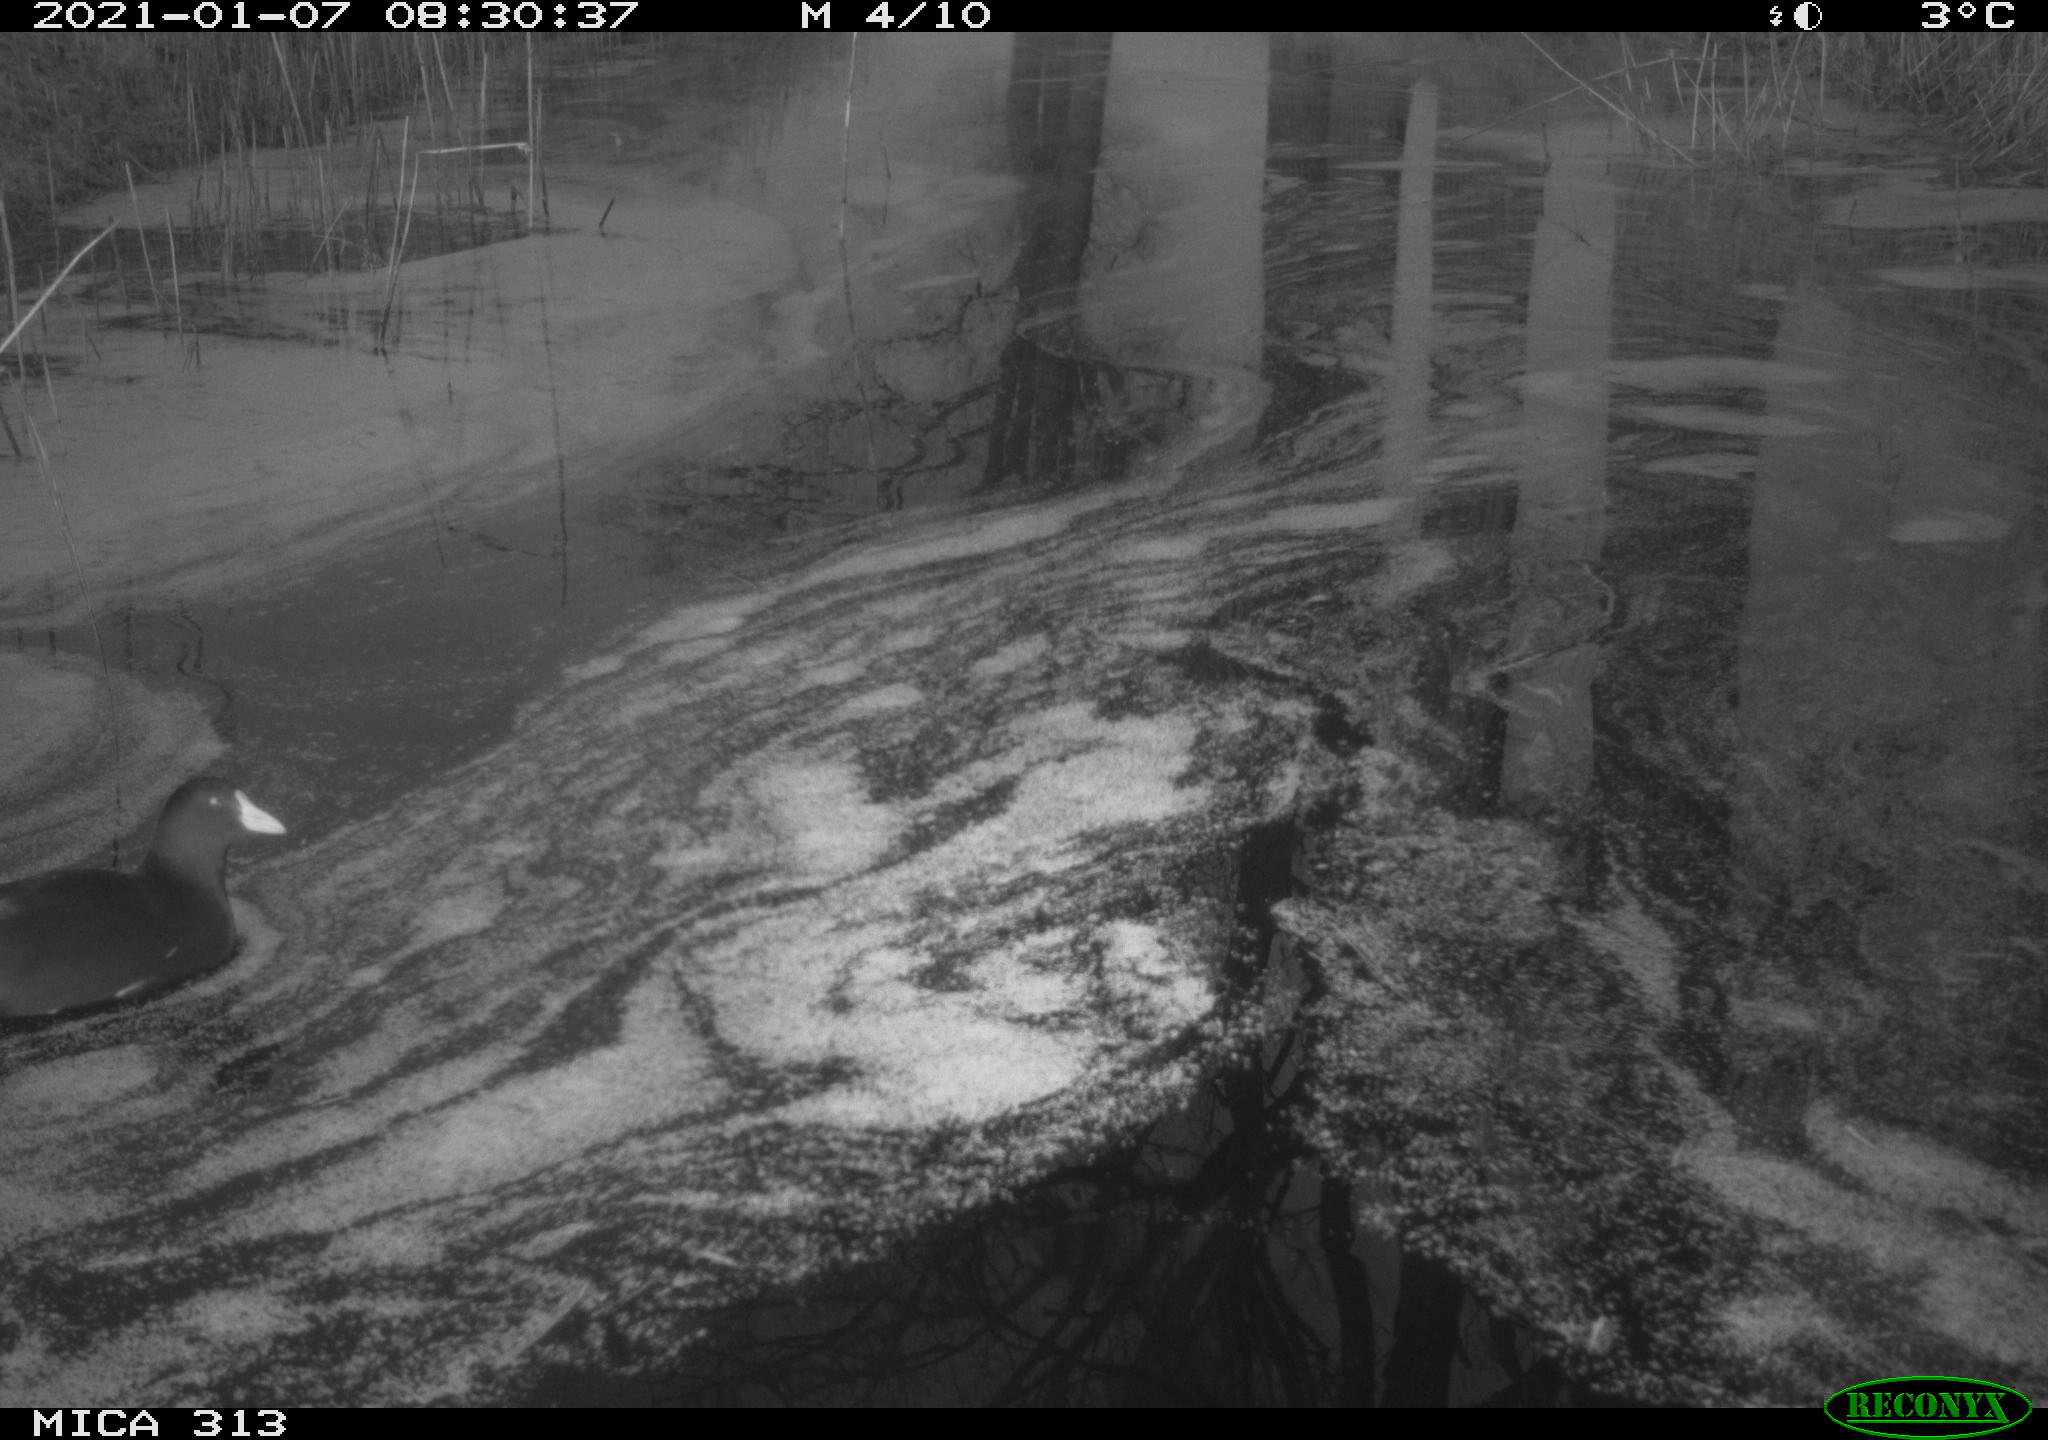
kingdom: Animalia
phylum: Chordata
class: Aves
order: Gruiformes
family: Rallidae
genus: Fulica
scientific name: Fulica atra
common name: Eurasian coot
